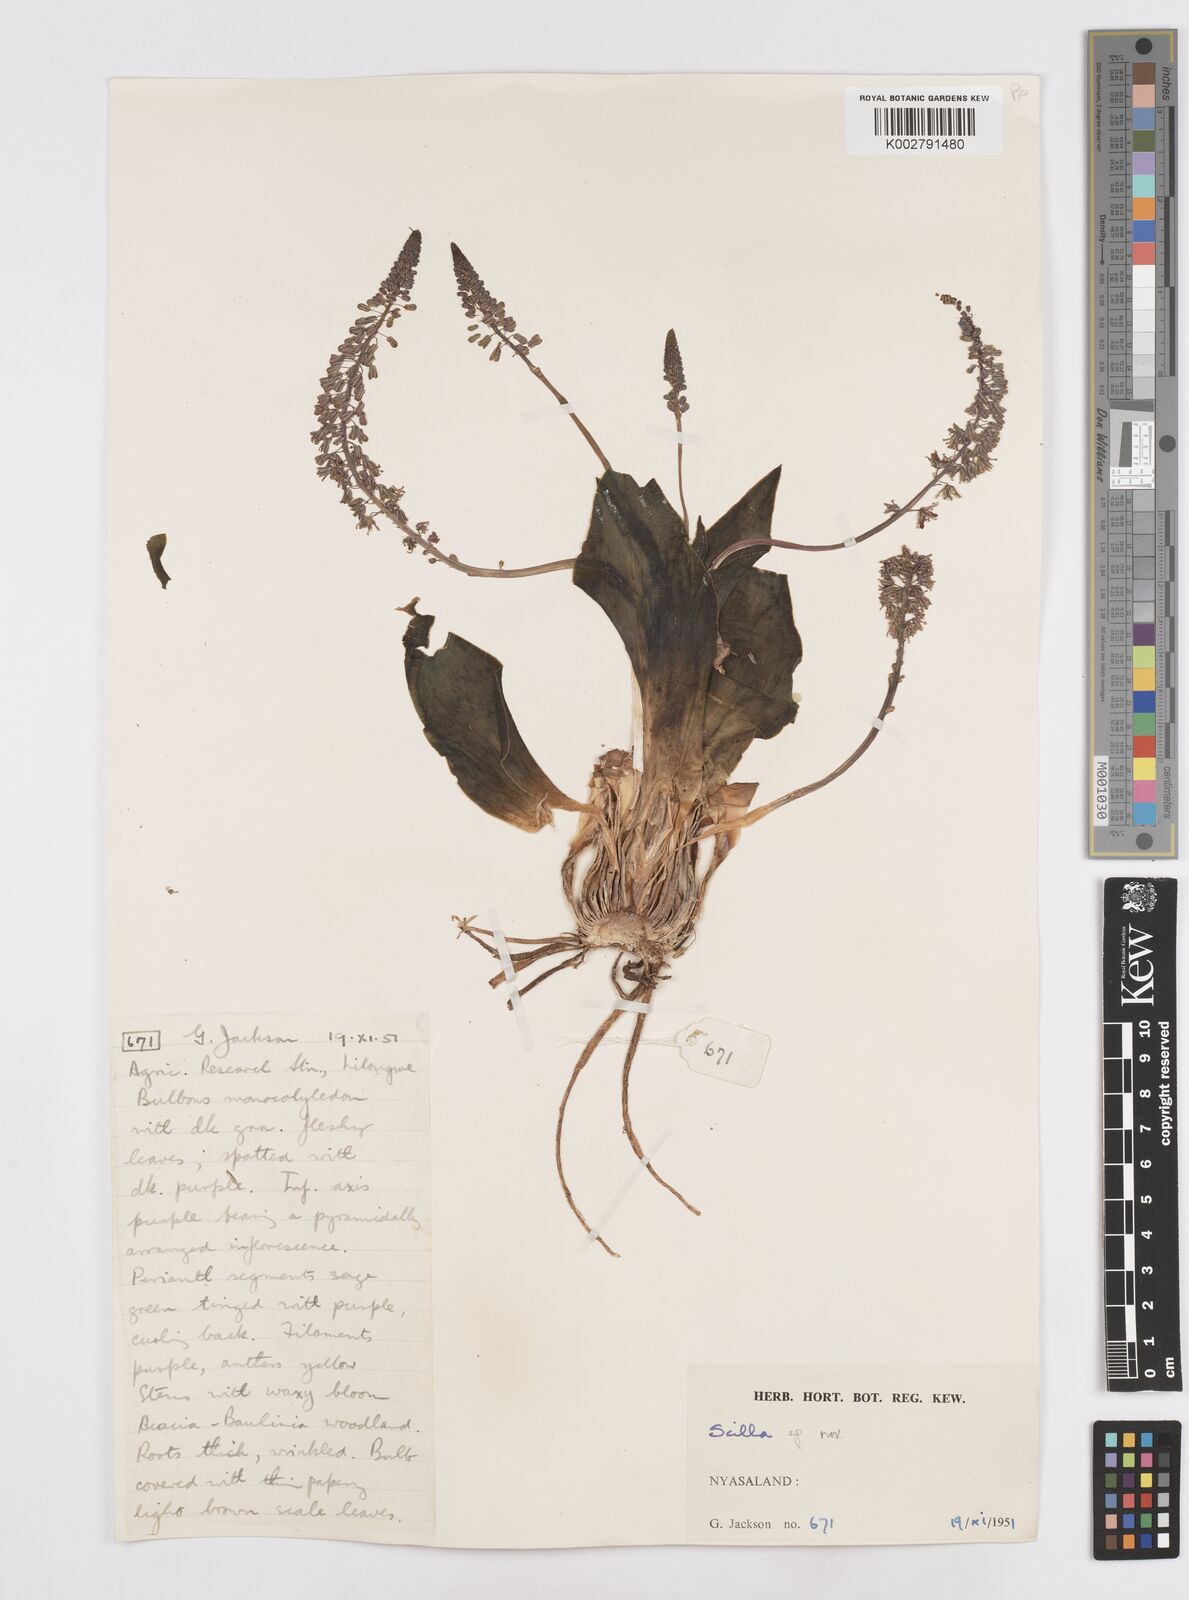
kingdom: Plantae
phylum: Tracheophyta
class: Liliopsida
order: Asparagales
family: Asparagaceae
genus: Scilla
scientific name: Scilla
